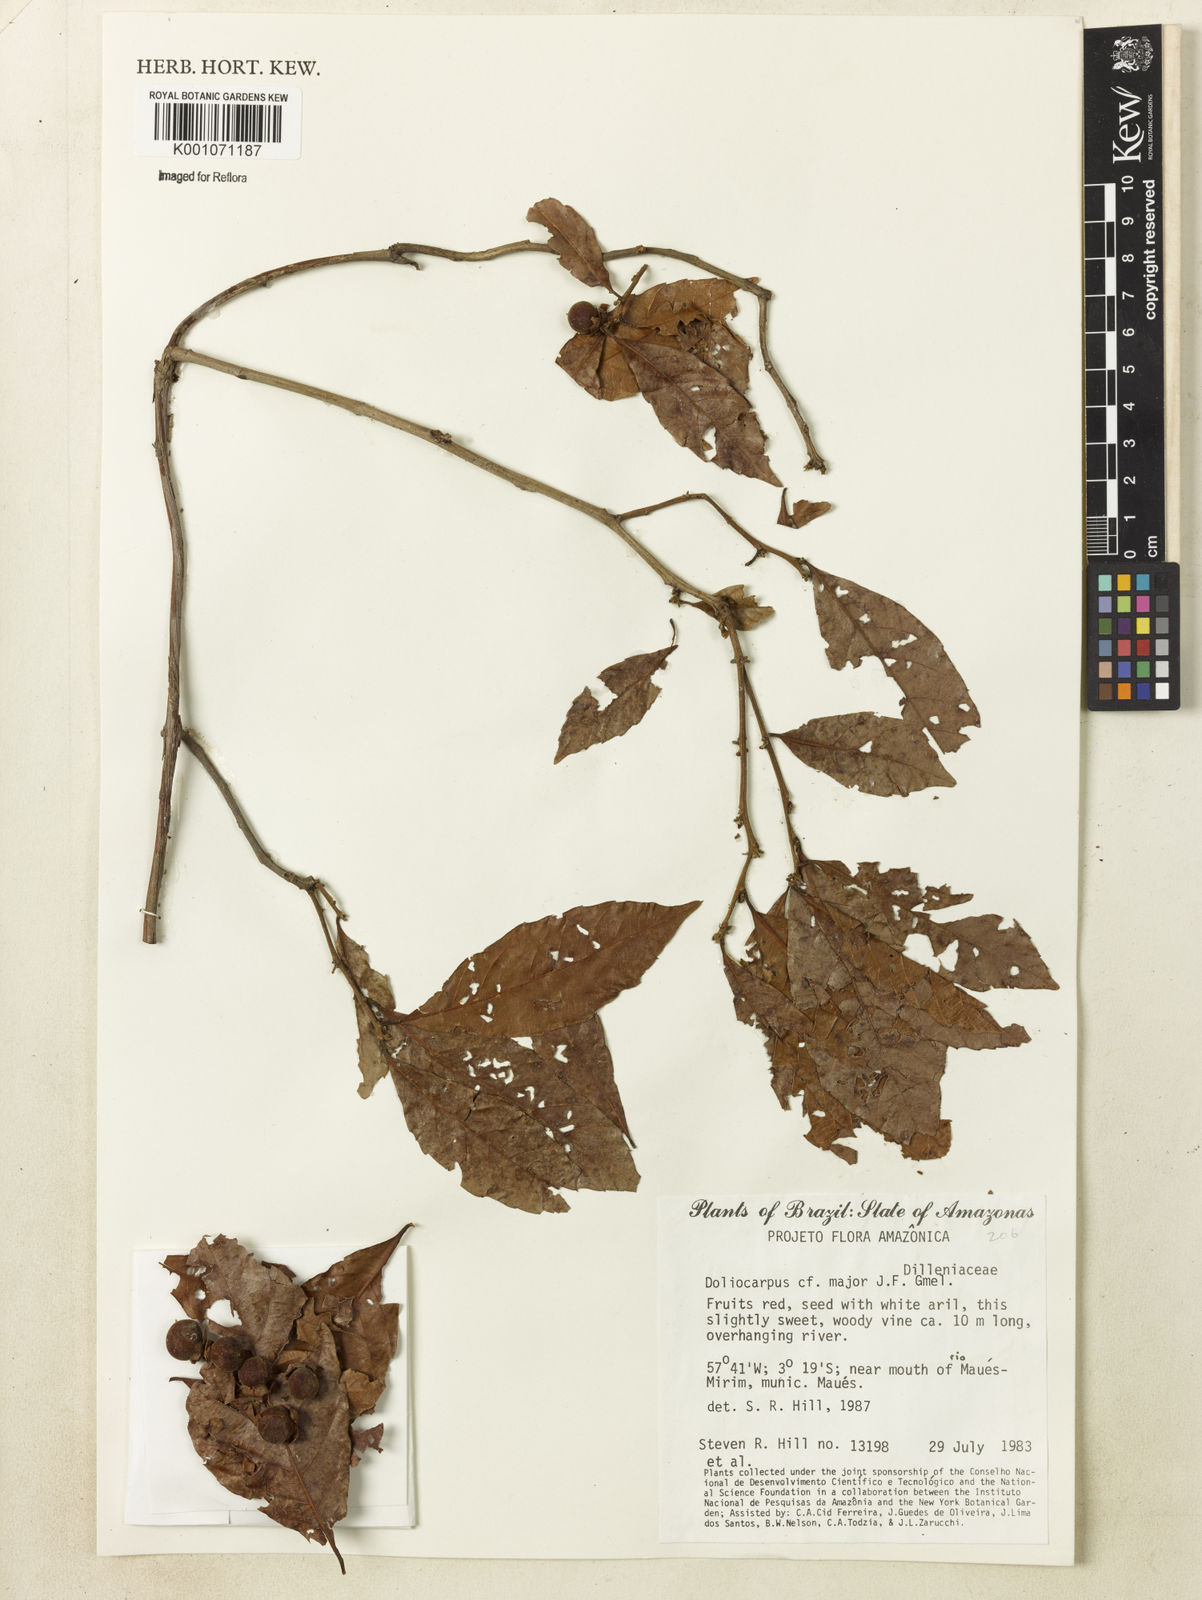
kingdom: Plantae
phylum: Tracheophyta
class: Magnoliopsida
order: Dilleniales
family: Dilleniaceae
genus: Doliocarpus
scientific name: Doliocarpus major
